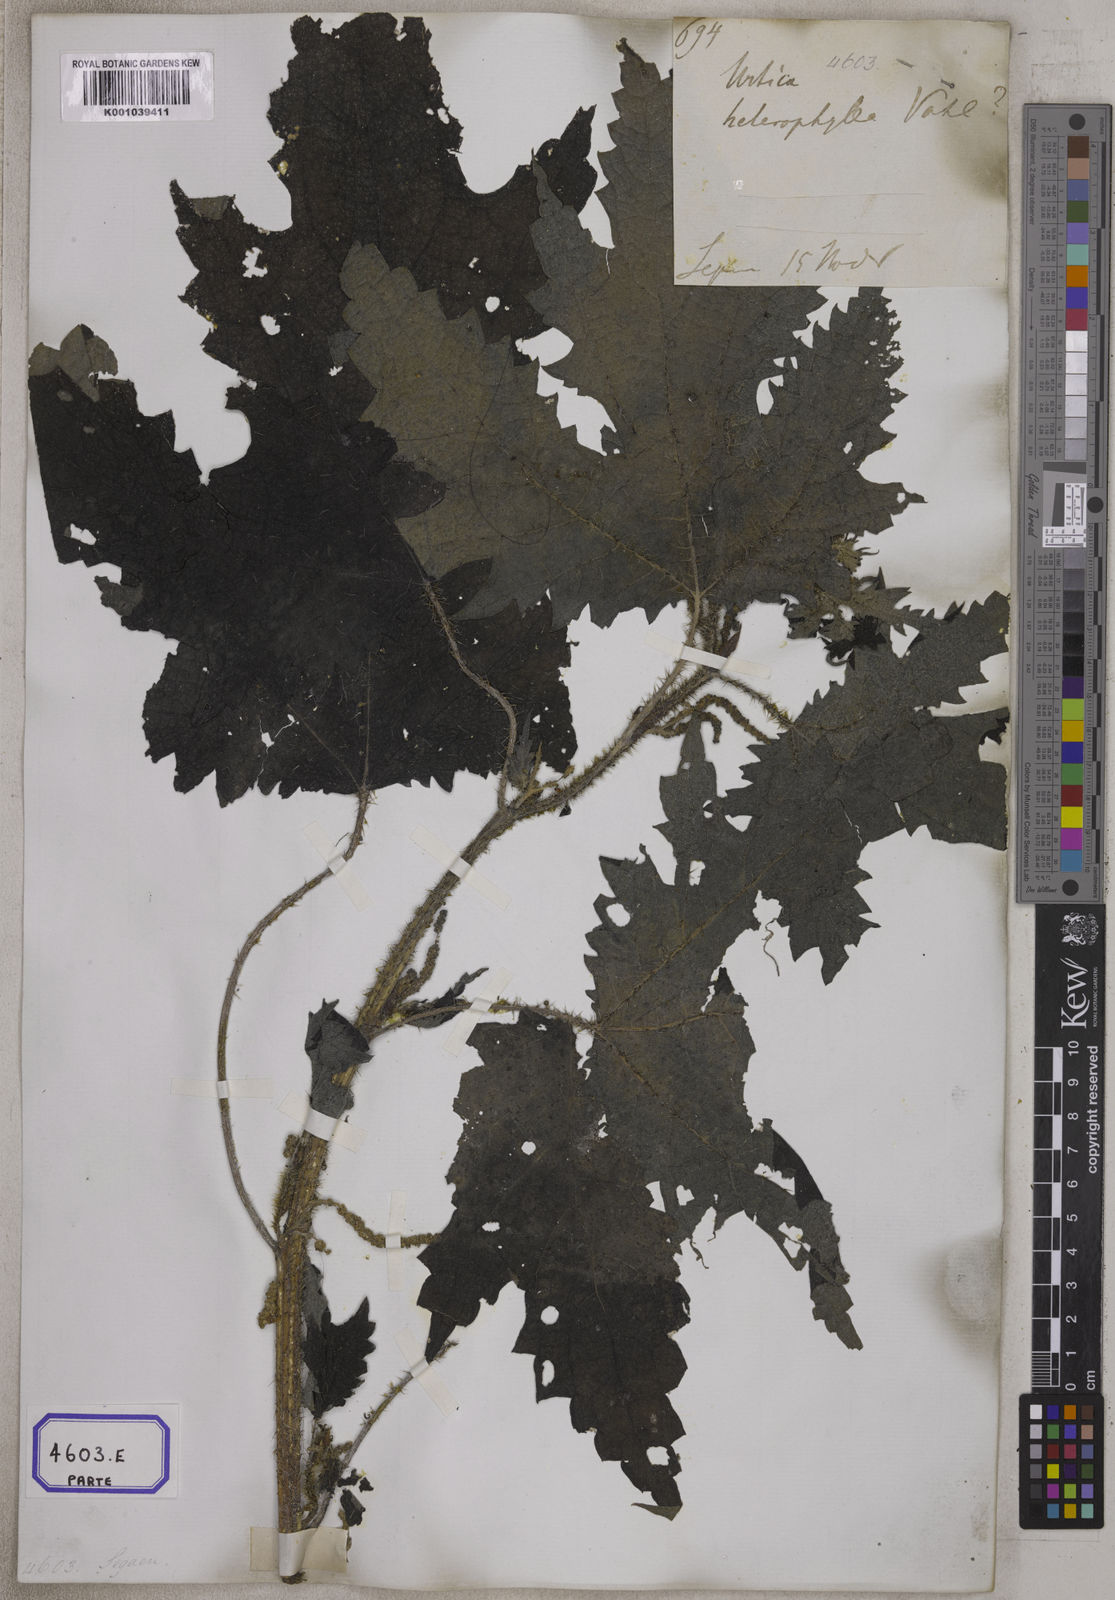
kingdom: Plantae
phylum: Tracheophyta
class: Magnoliopsida
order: Rosales
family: Urticaceae
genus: Girardinia
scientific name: Girardinia diversifolia
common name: Himalayan-nettle
